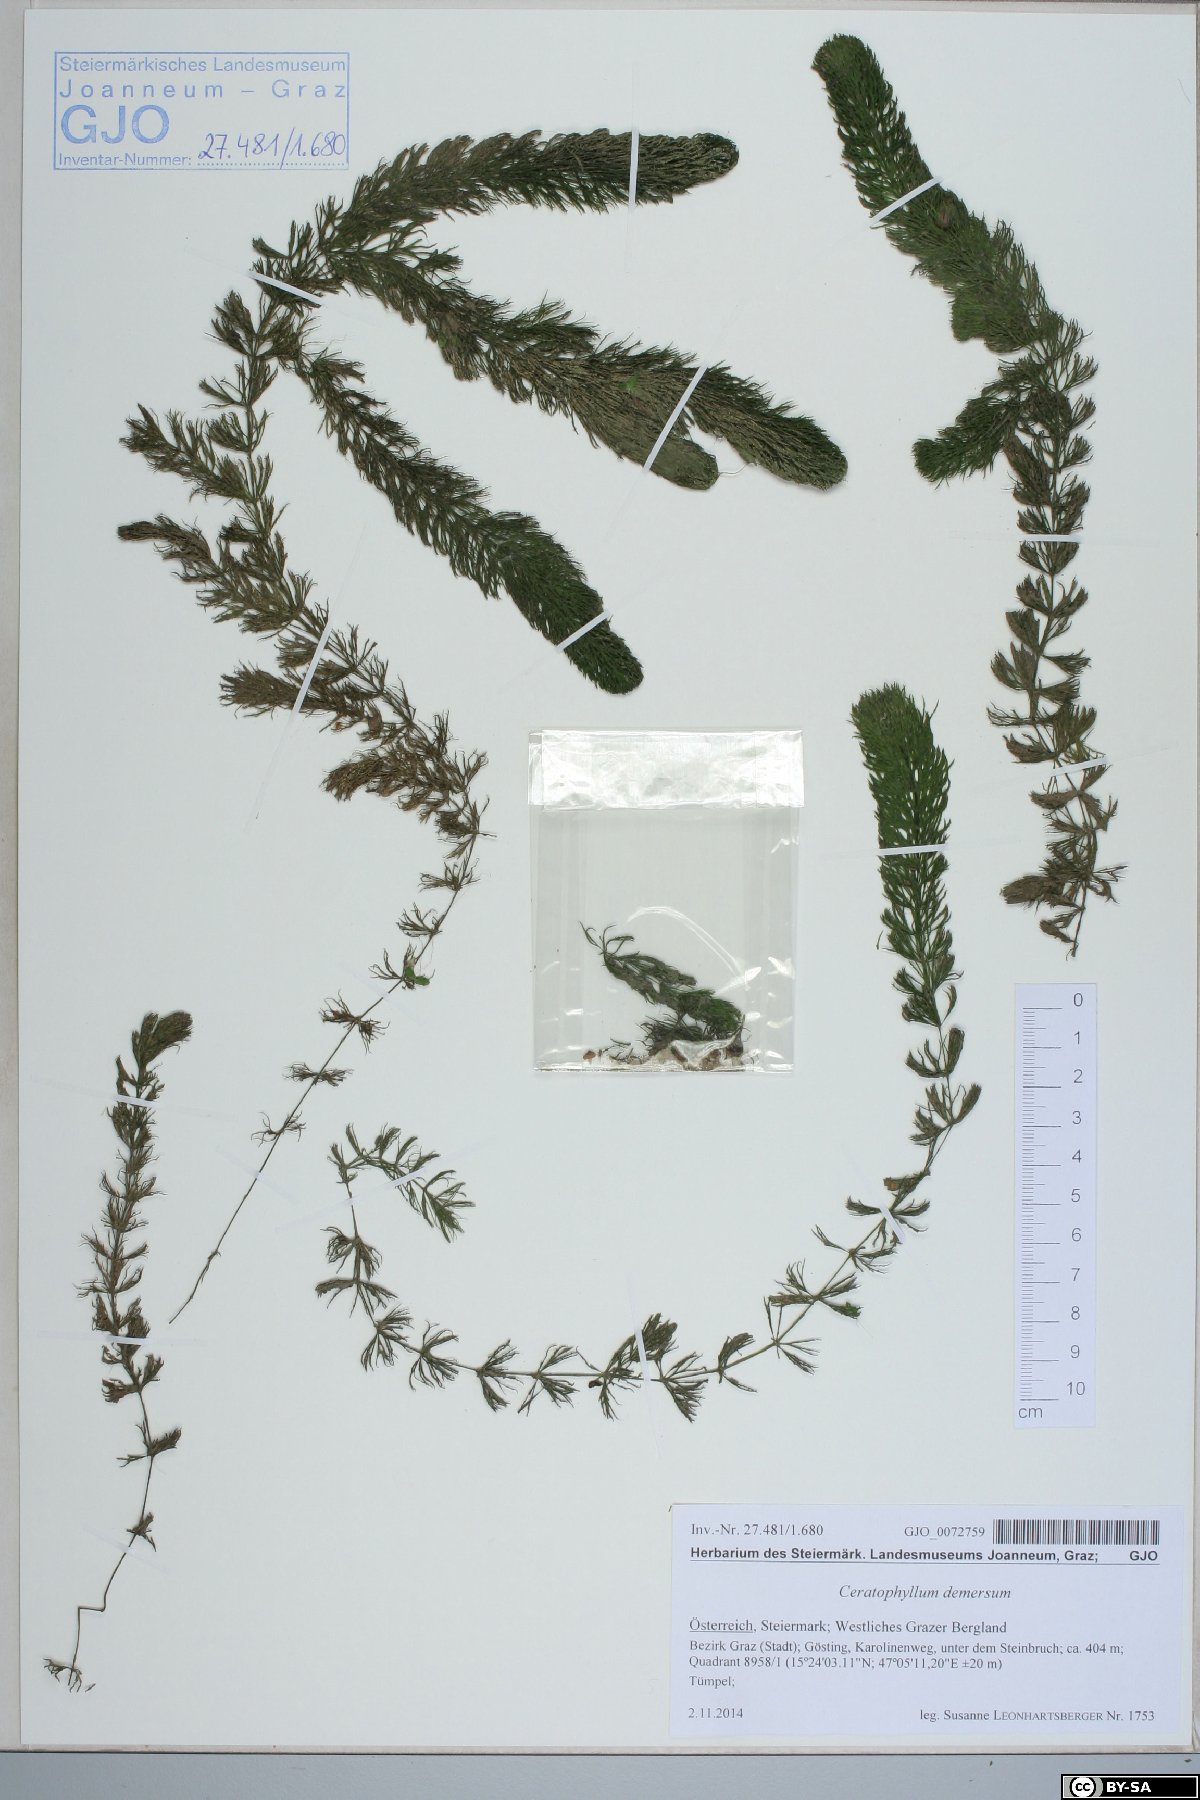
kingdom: Plantae
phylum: Tracheophyta
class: Magnoliopsida
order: Ceratophyllales
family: Ceratophyllaceae
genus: Ceratophyllum
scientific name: Ceratophyllum demersum
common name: Rigid hornwort
